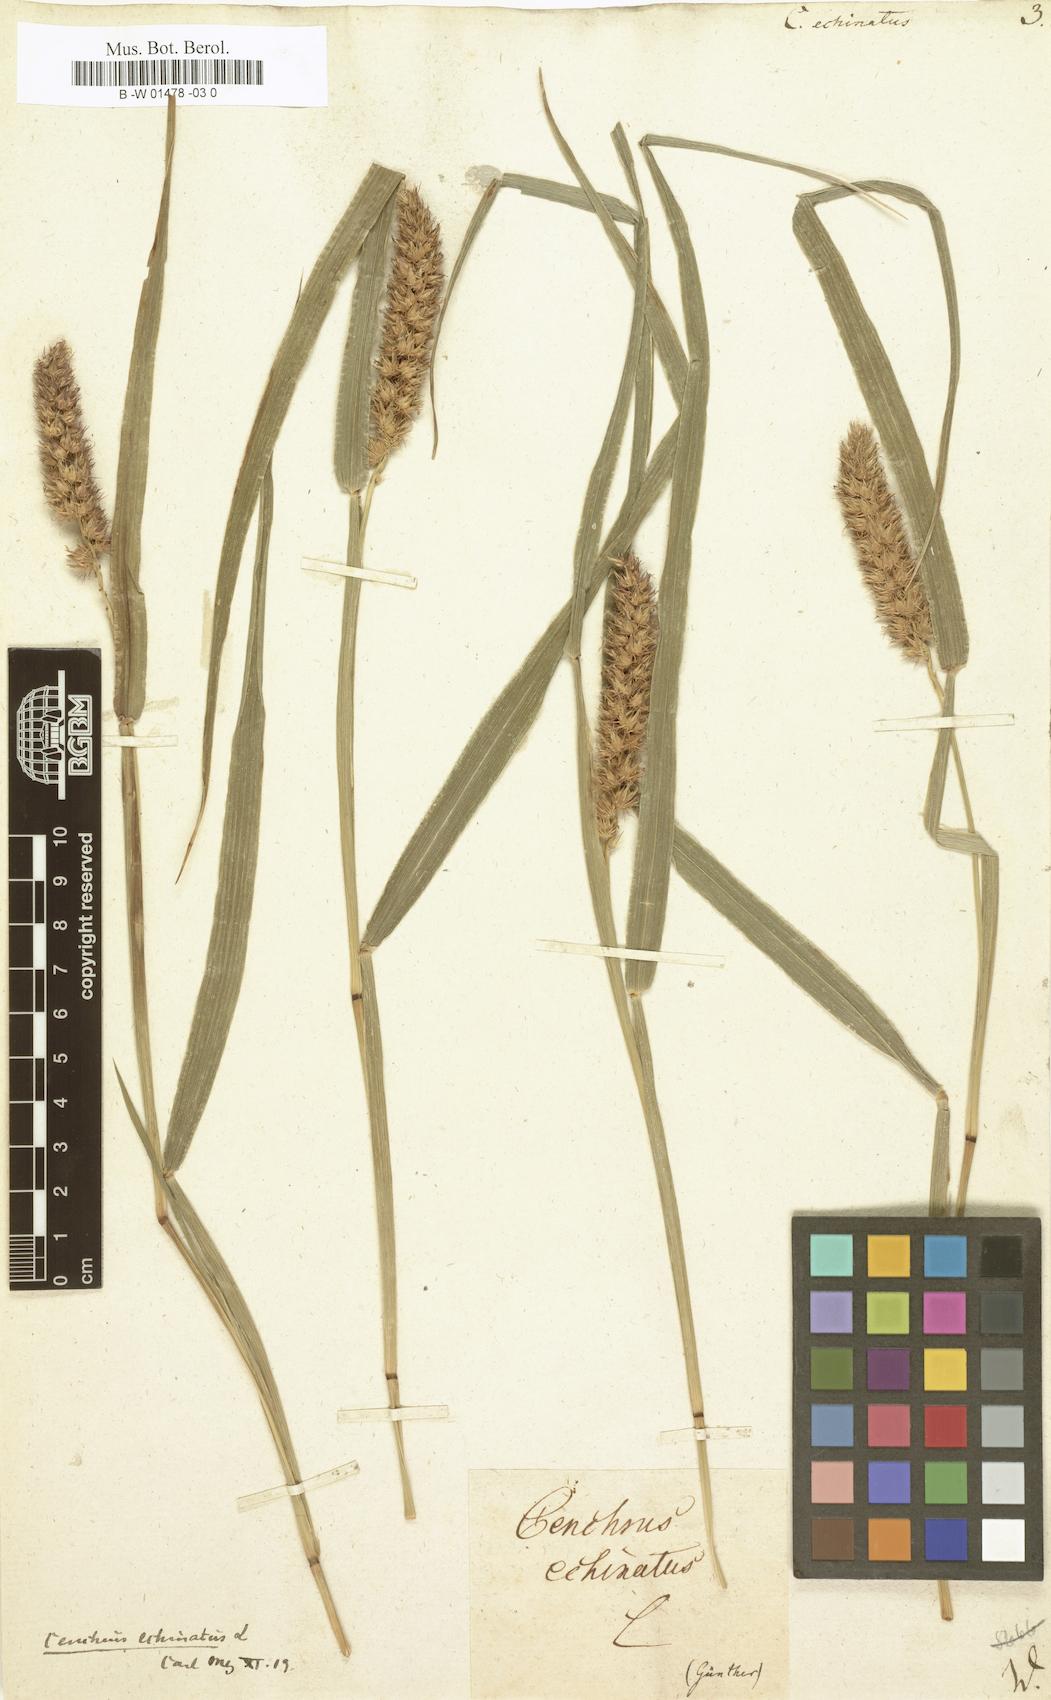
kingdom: Plantae
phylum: Tracheophyta
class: Liliopsida
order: Poales
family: Poaceae
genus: Cenchrus
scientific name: Cenchrus echinatus
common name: Southern sandbur
